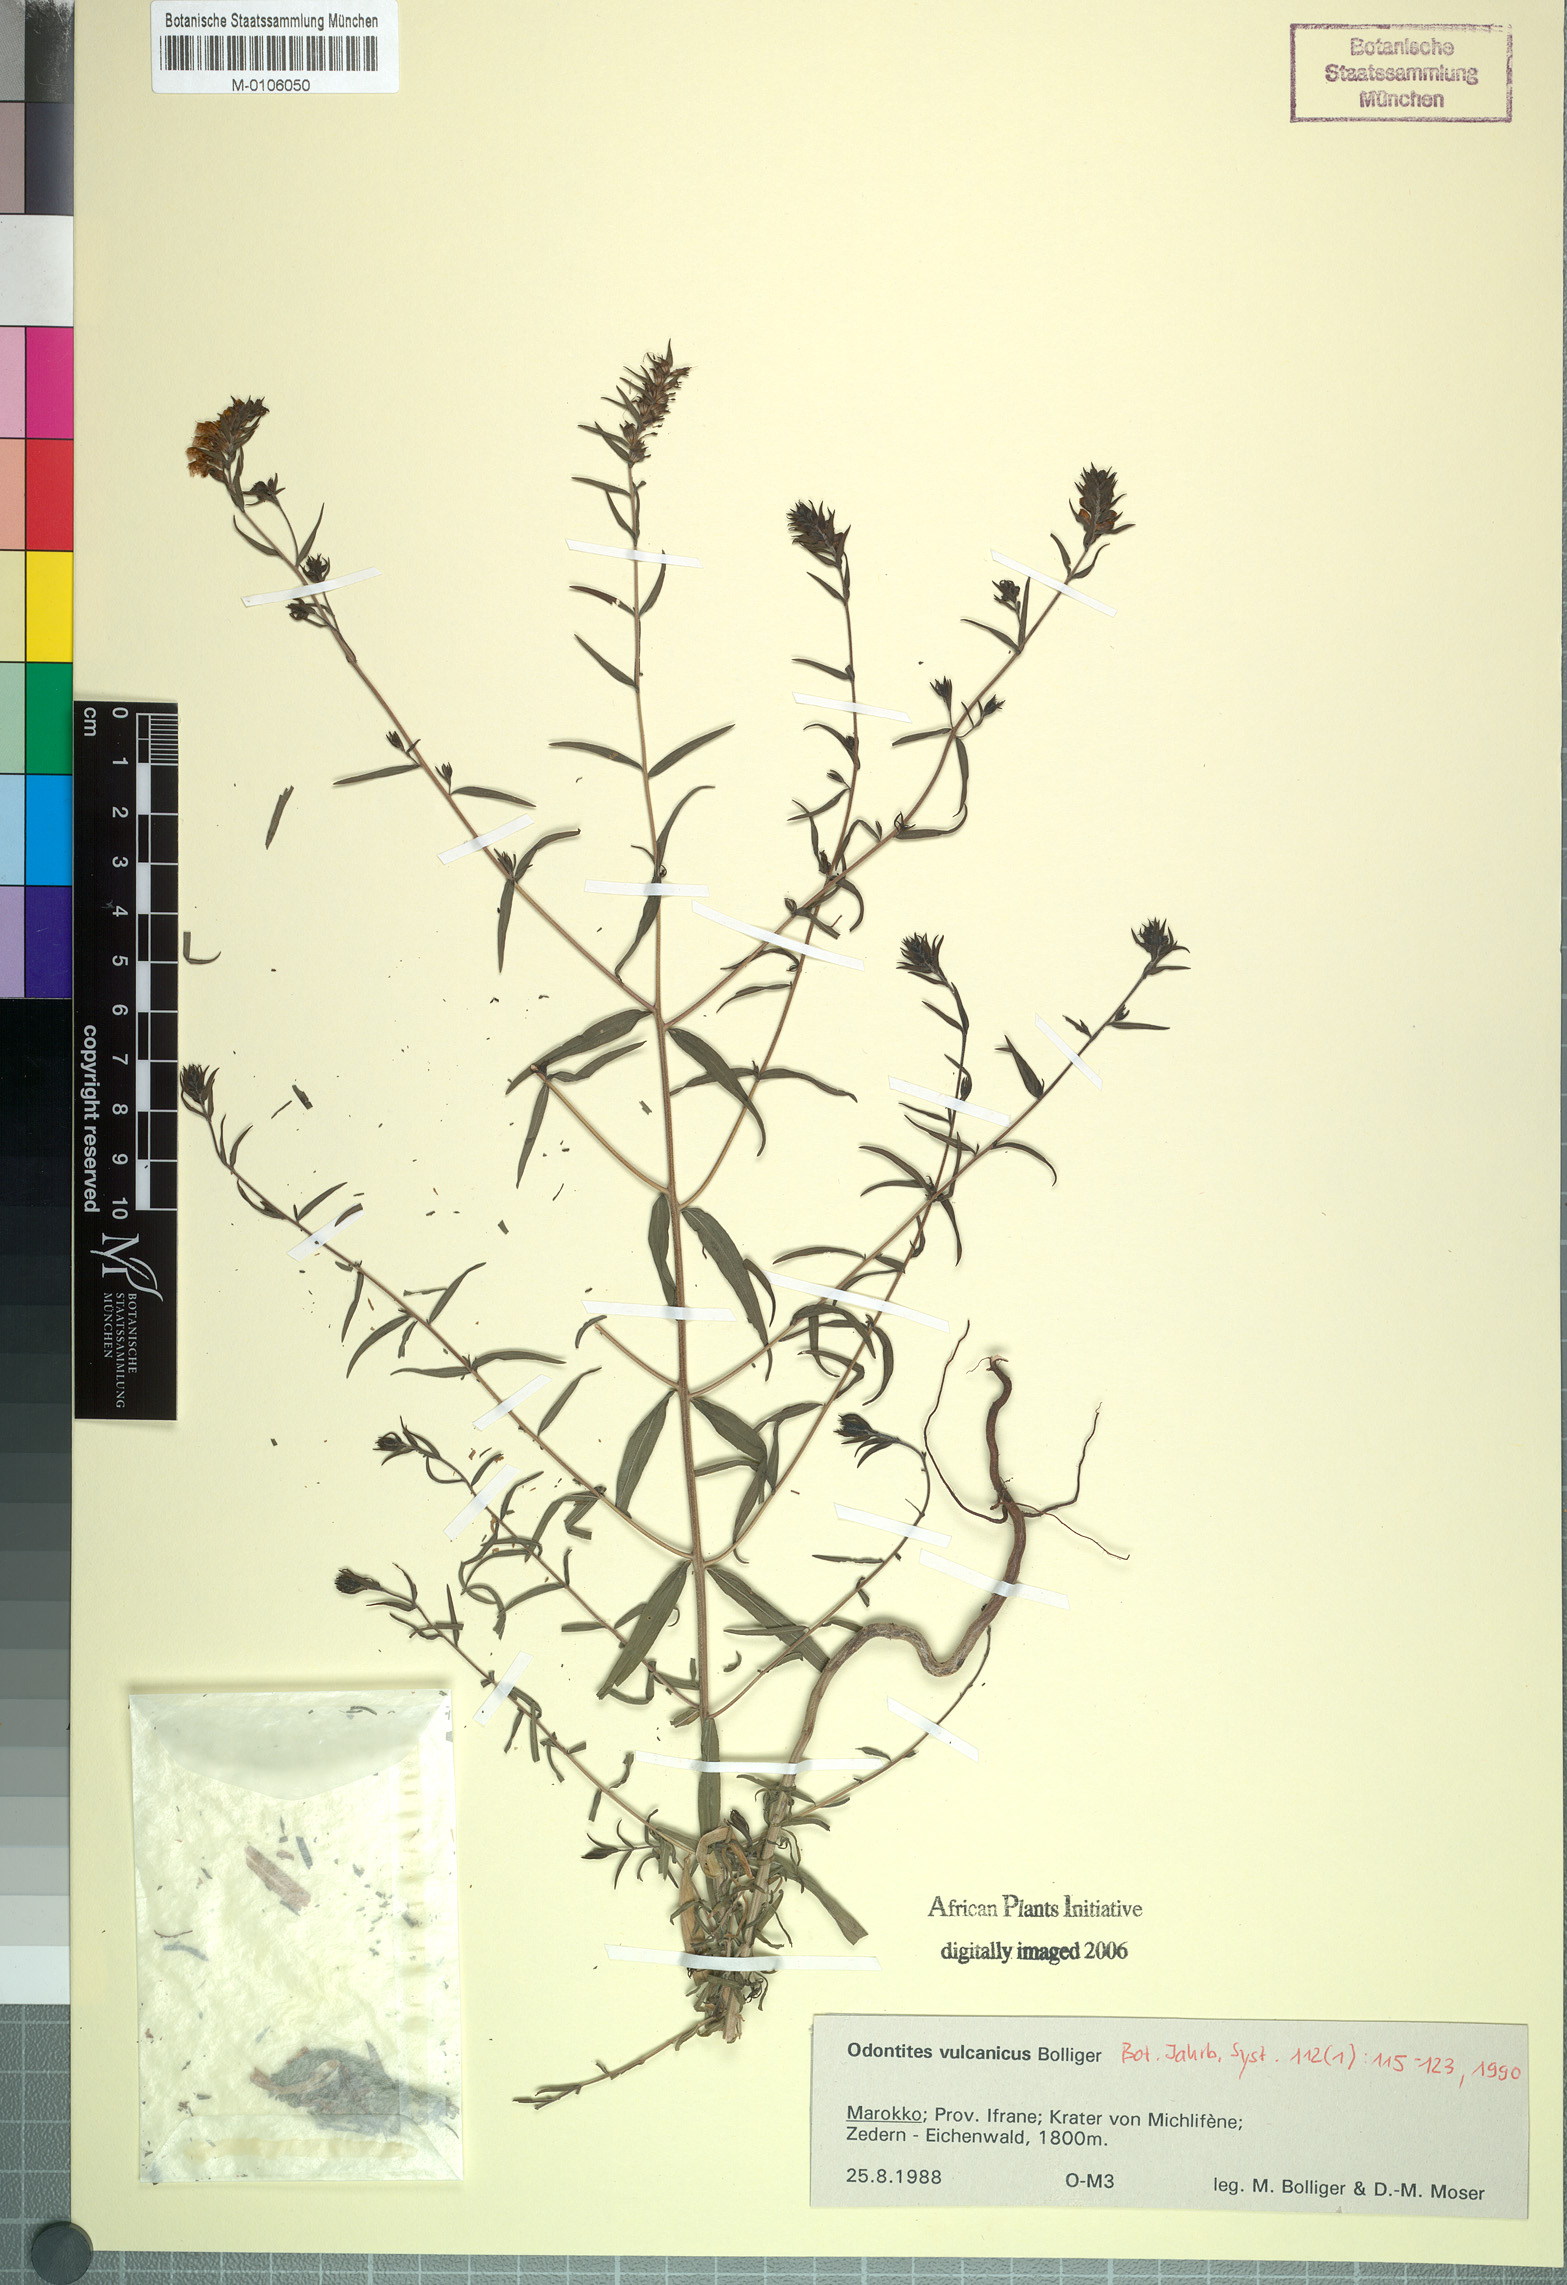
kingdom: Plantae
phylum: Tracheophyta
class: Magnoliopsida
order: Lamiales
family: Orobanchaceae
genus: Odontites
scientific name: Odontites vulcanicus
